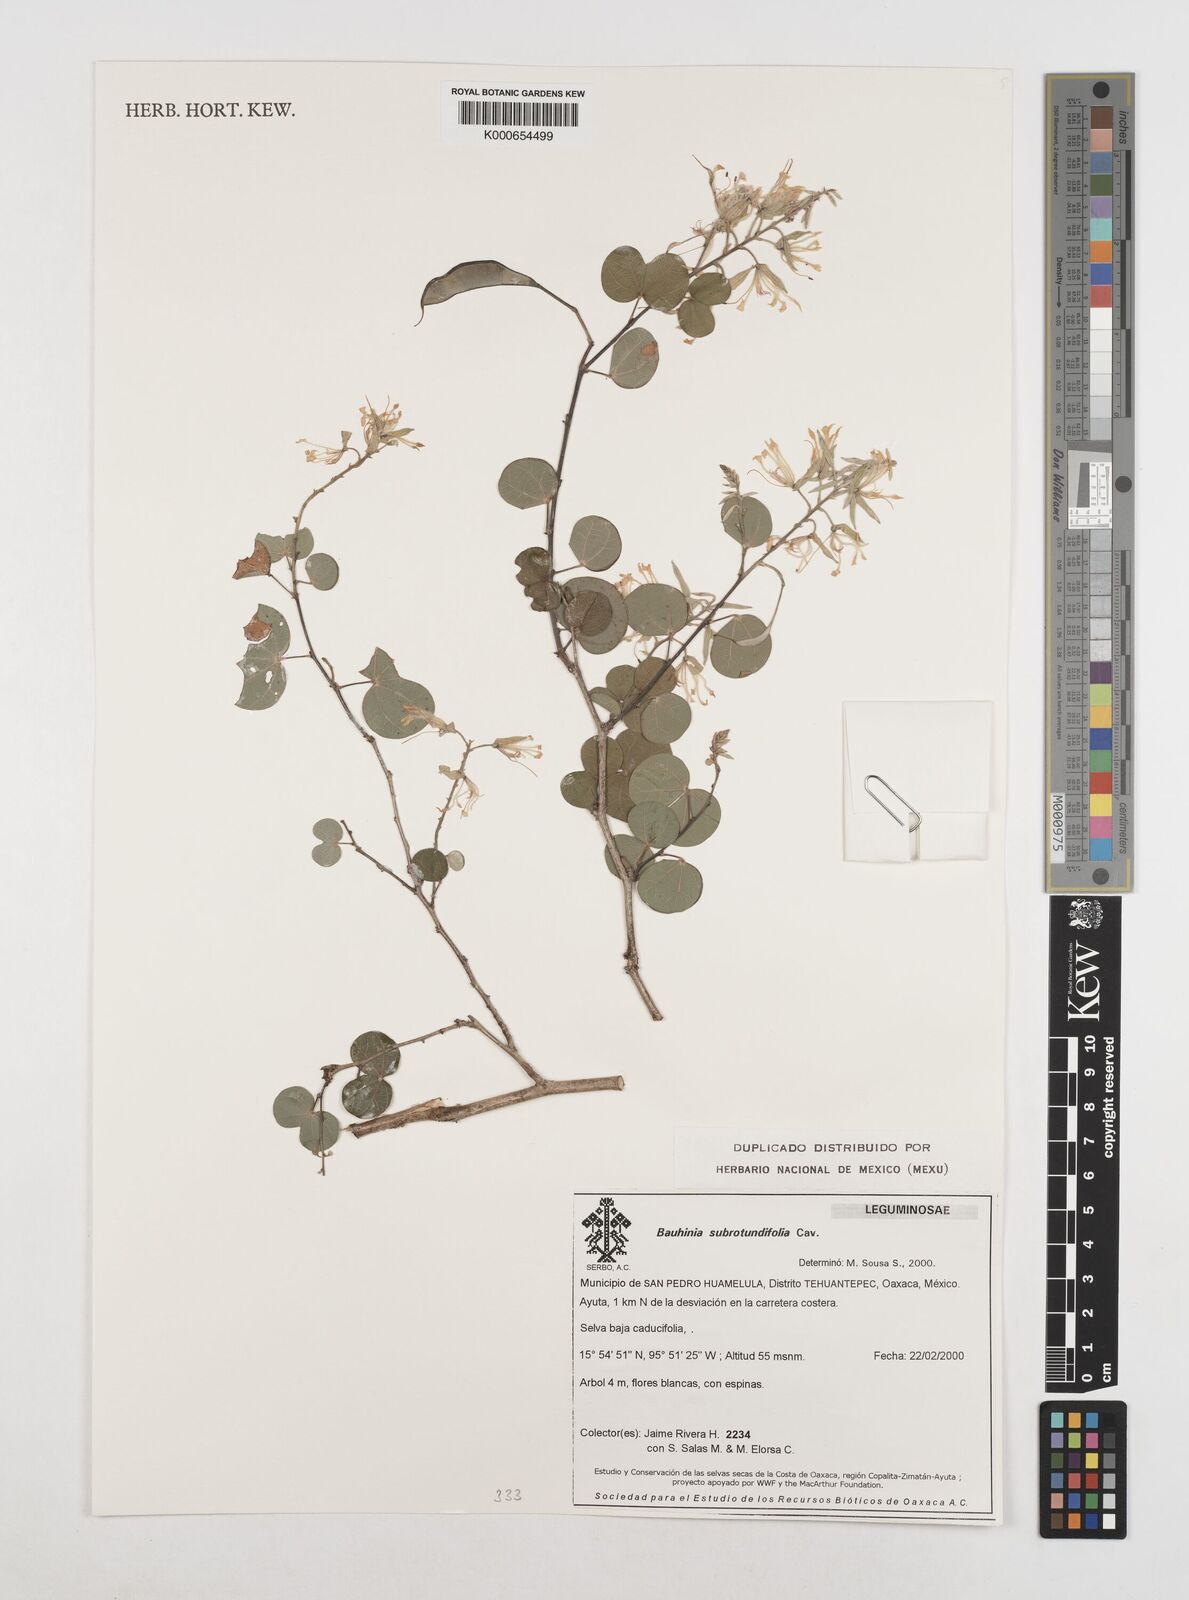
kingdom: Plantae
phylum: Tracheophyta
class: Magnoliopsida
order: Fabales
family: Fabaceae
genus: Bauhinia
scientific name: Bauhinia subrotundifolia
